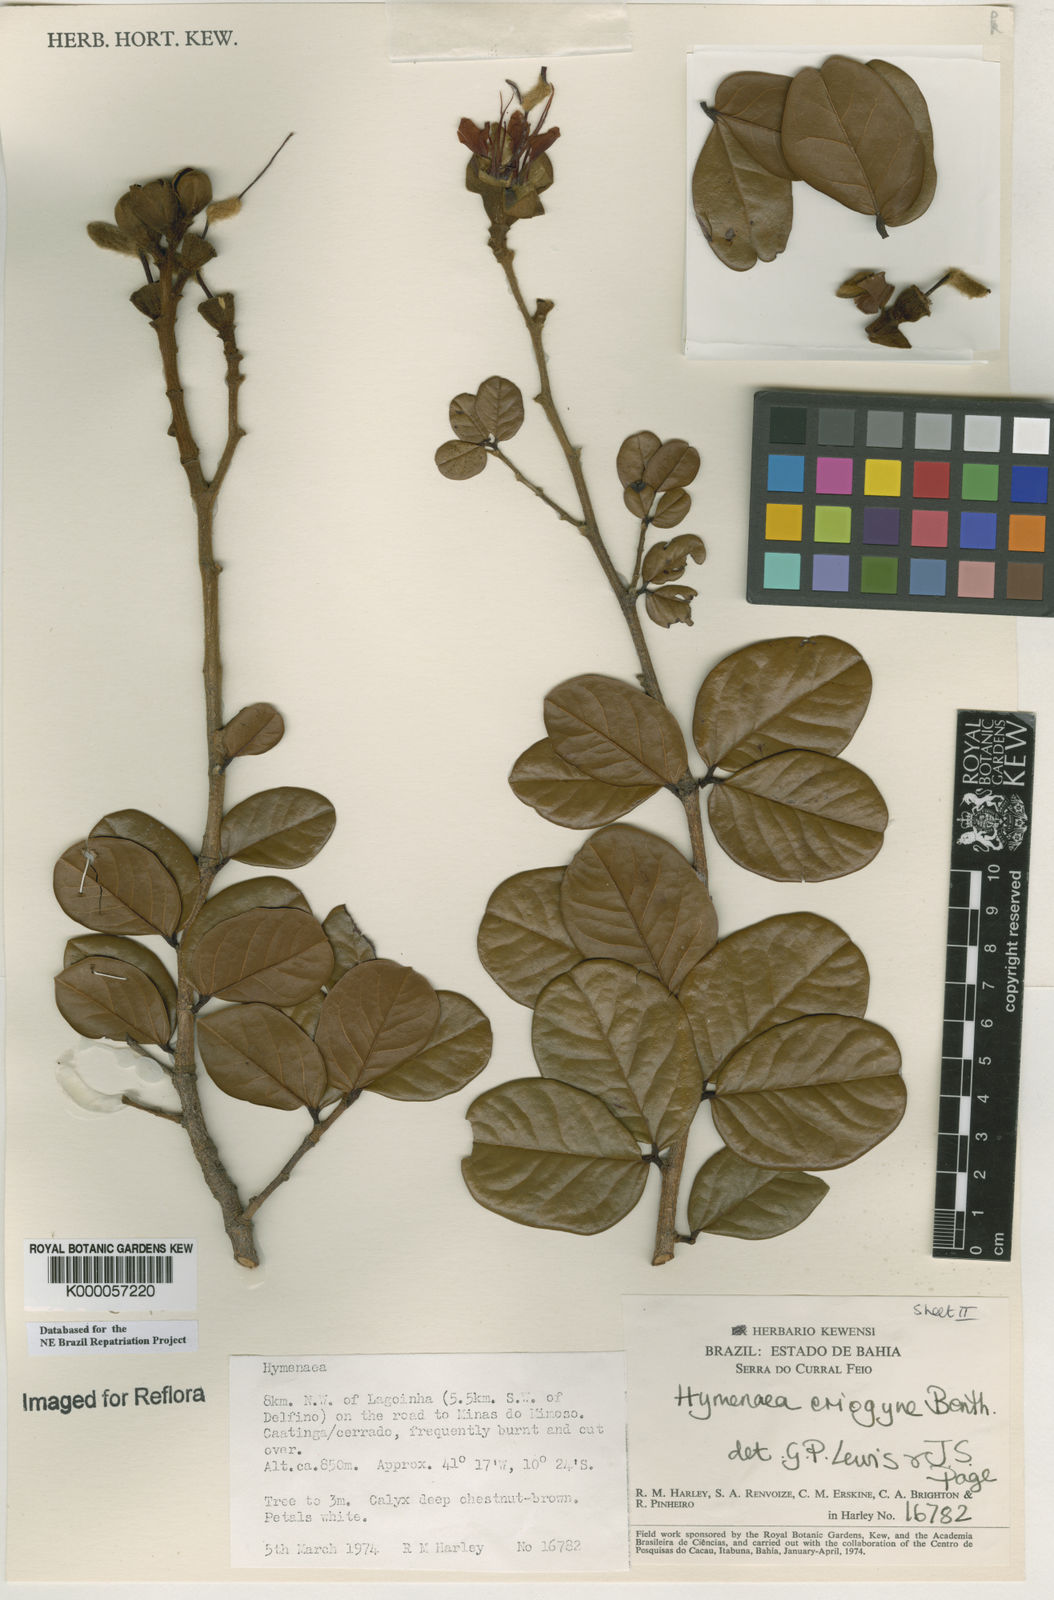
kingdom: Plantae
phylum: Tracheophyta
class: Magnoliopsida
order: Fabales
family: Fabaceae
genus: Hymenaea
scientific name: Hymenaea eriogyne
